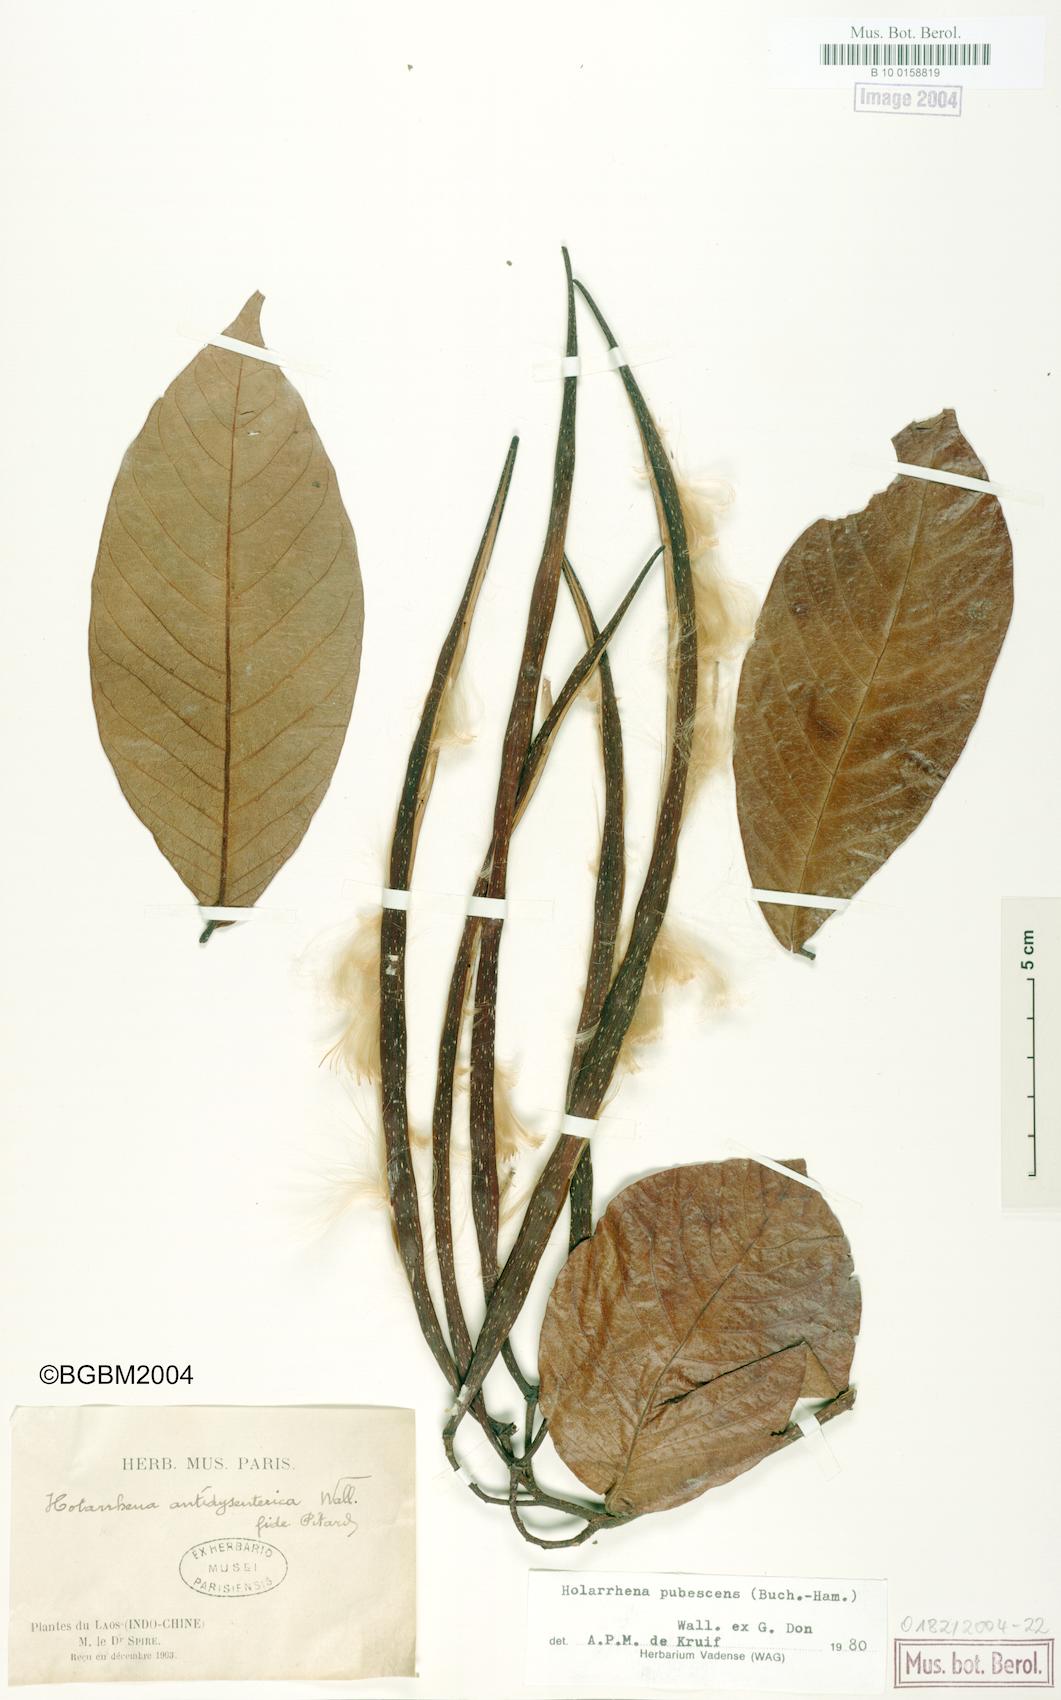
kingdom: Plantae
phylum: Tracheophyta
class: Magnoliopsida
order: Gentianales
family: Apocynaceae
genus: Holarrhena
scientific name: Holarrhena pubescens
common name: Bitter oleander
